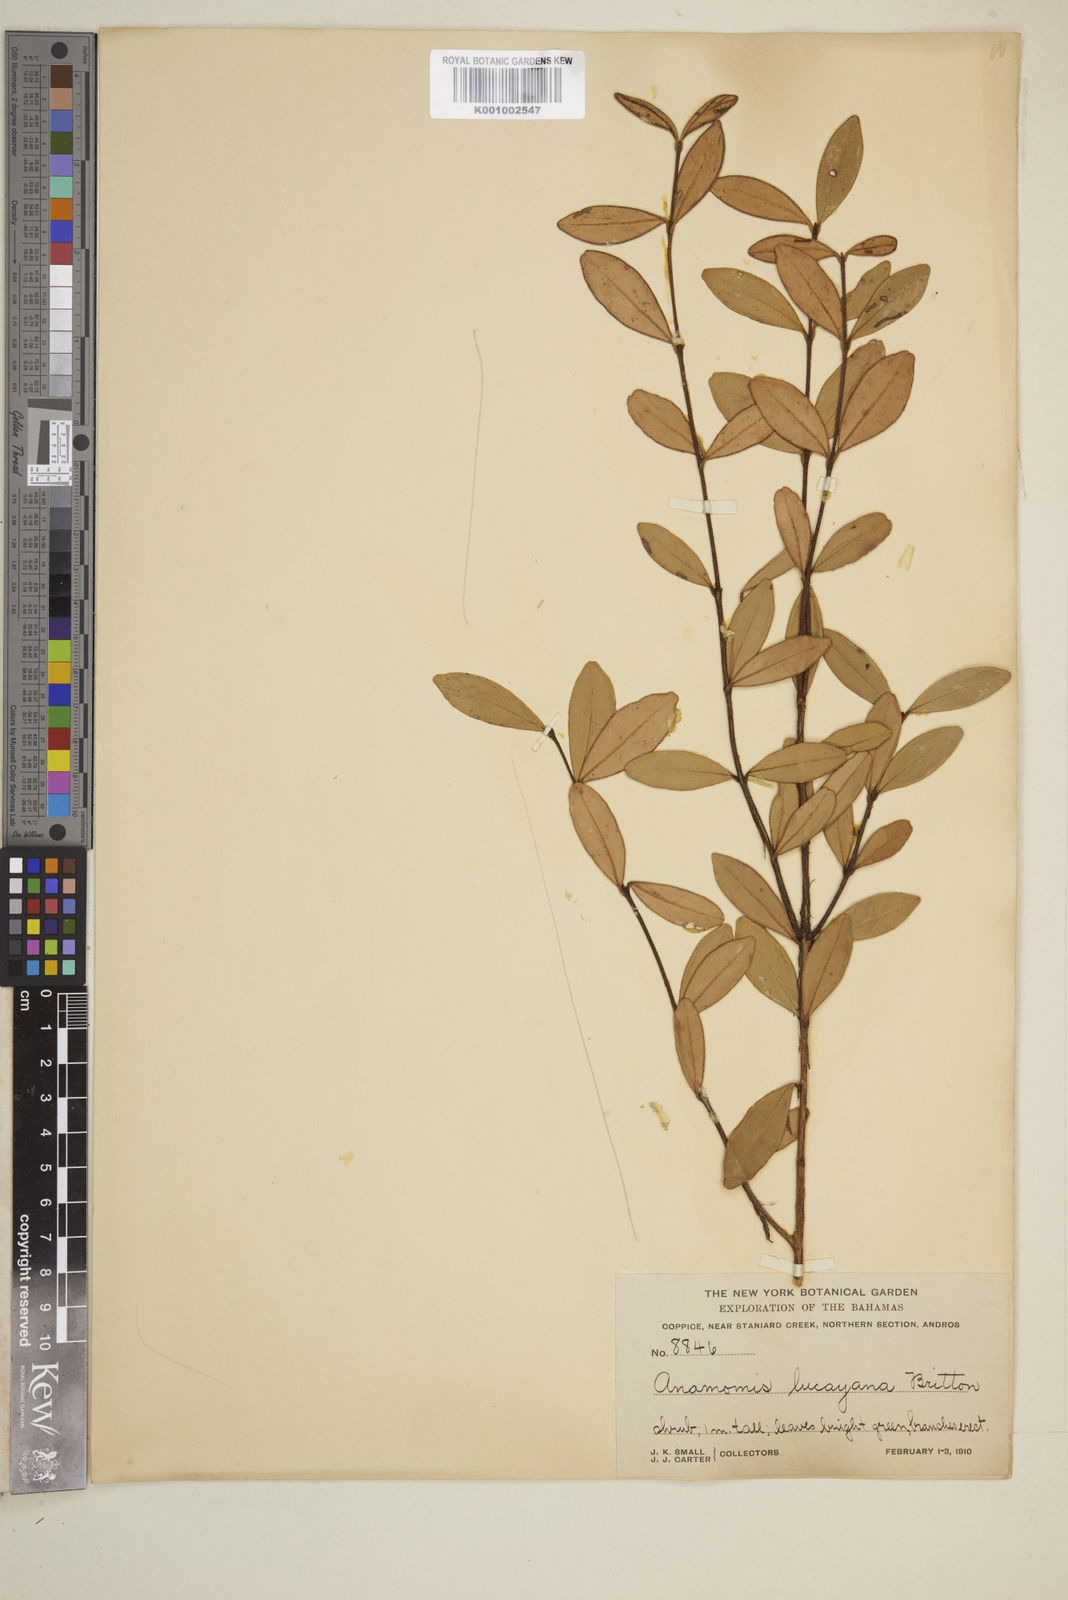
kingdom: Plantae
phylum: Tracheophyta
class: Magnoliopsida
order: Myrtales
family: Myrtaceae
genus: Myrcianthes
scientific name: Myrcianthes fragrans
